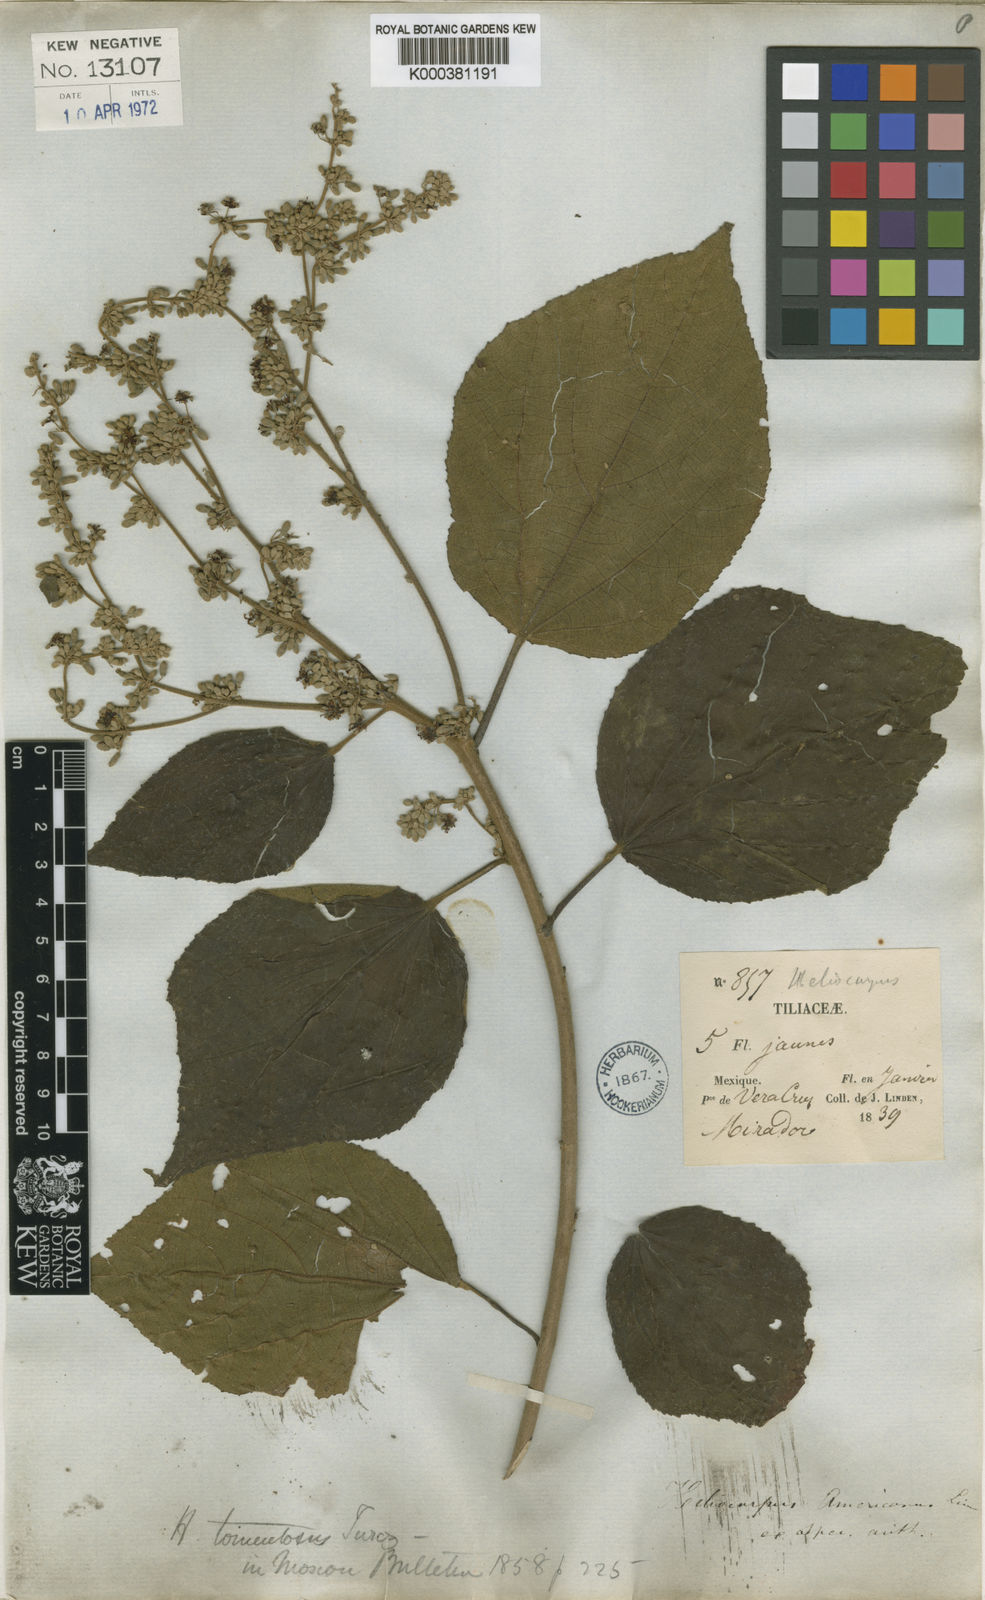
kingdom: Plantae
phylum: Tracheophyta
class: Magnoliopsida
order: Malvales
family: Malvaceae
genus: Heliocarpus
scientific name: Heliocarpus americanus
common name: White moho
